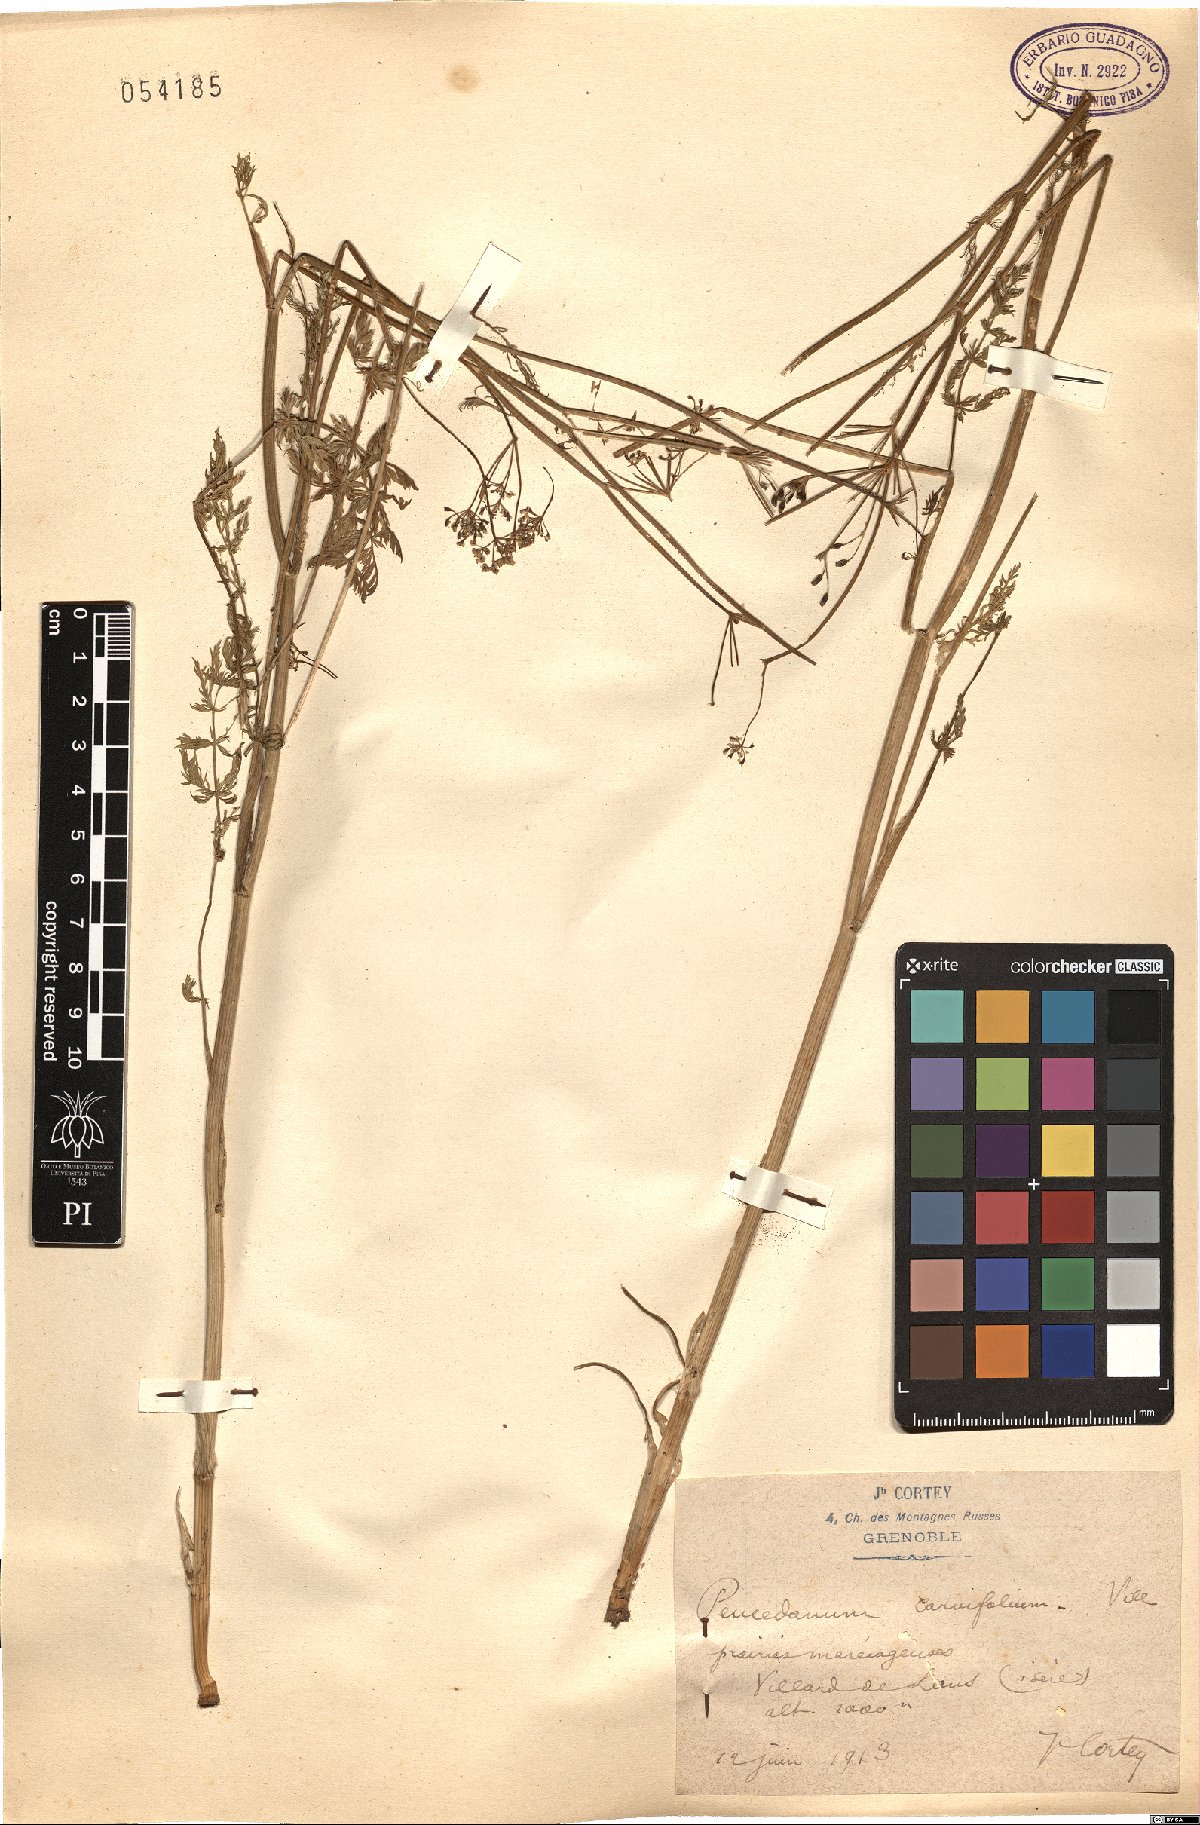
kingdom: Plantae
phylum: Tracheophyta
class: Magnoliopsida
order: Apiales
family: Apiaceae
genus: Dichoropetalum
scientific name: Dichoropetalum carvifolia
